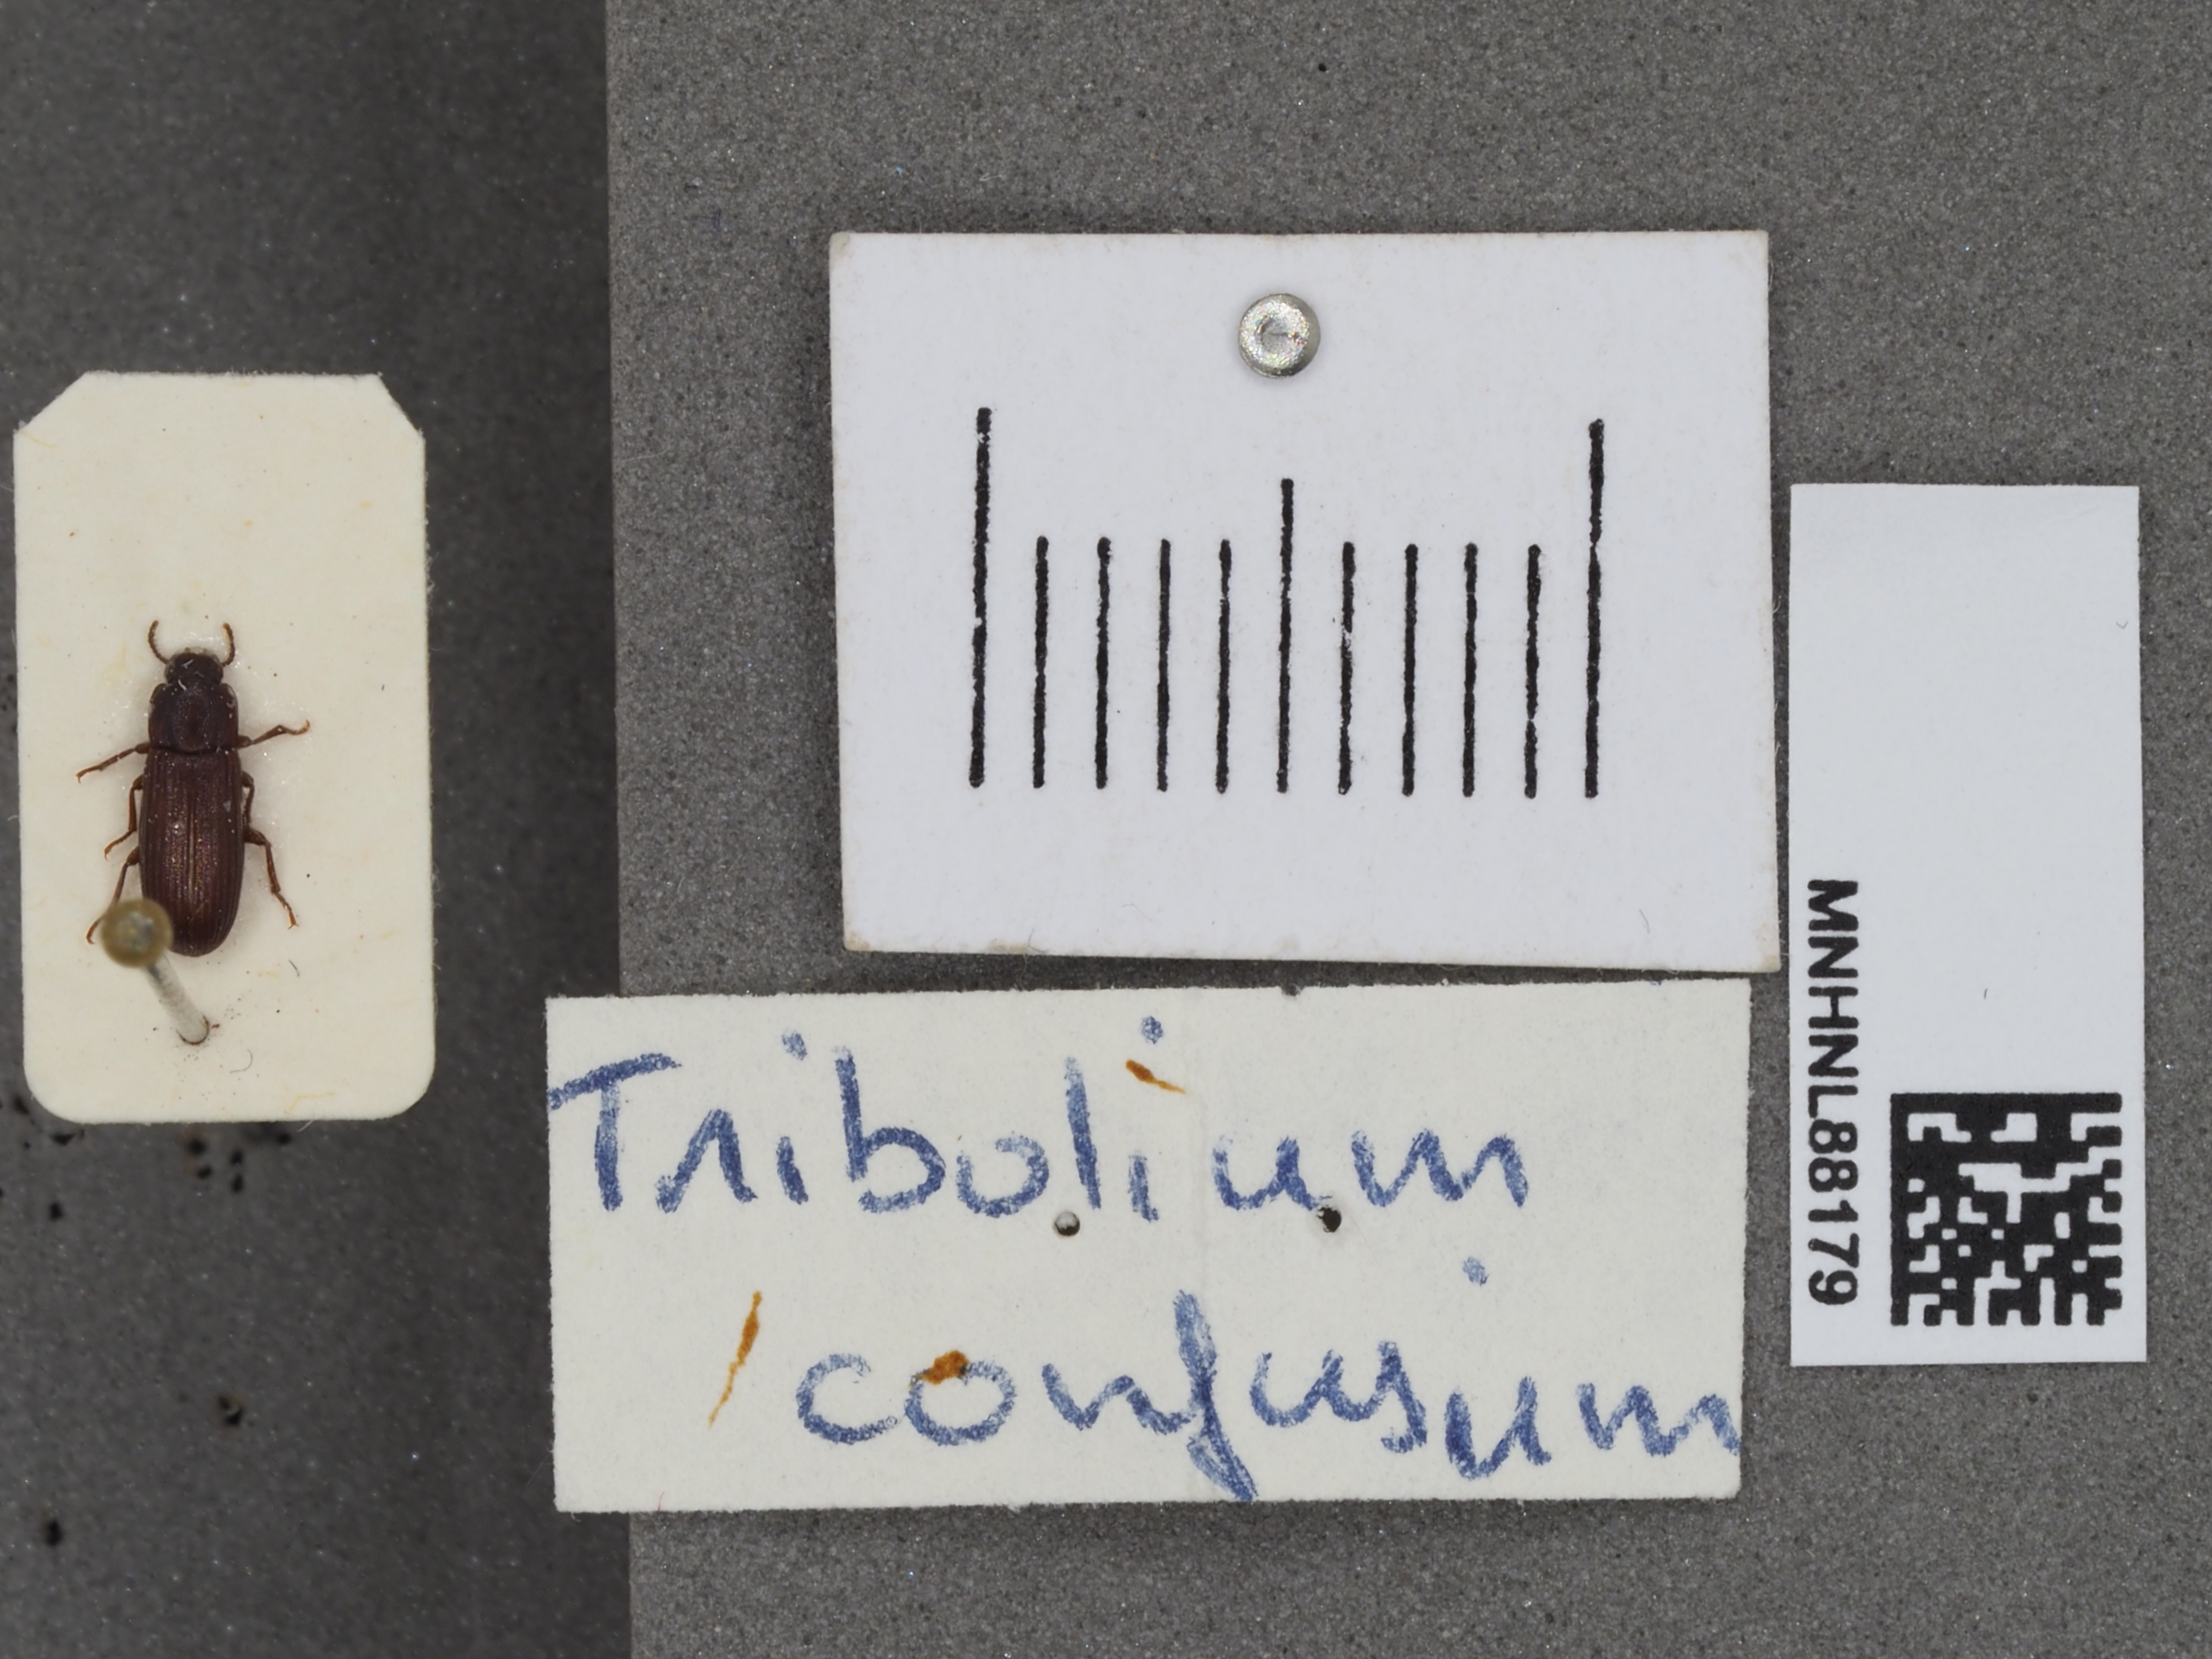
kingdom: Animalia
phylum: Arthropoda
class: Insecta
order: Coleoptera
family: Tenebrionidae
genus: Tribolium
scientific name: Tribolium confusum
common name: Confused flour beetle
